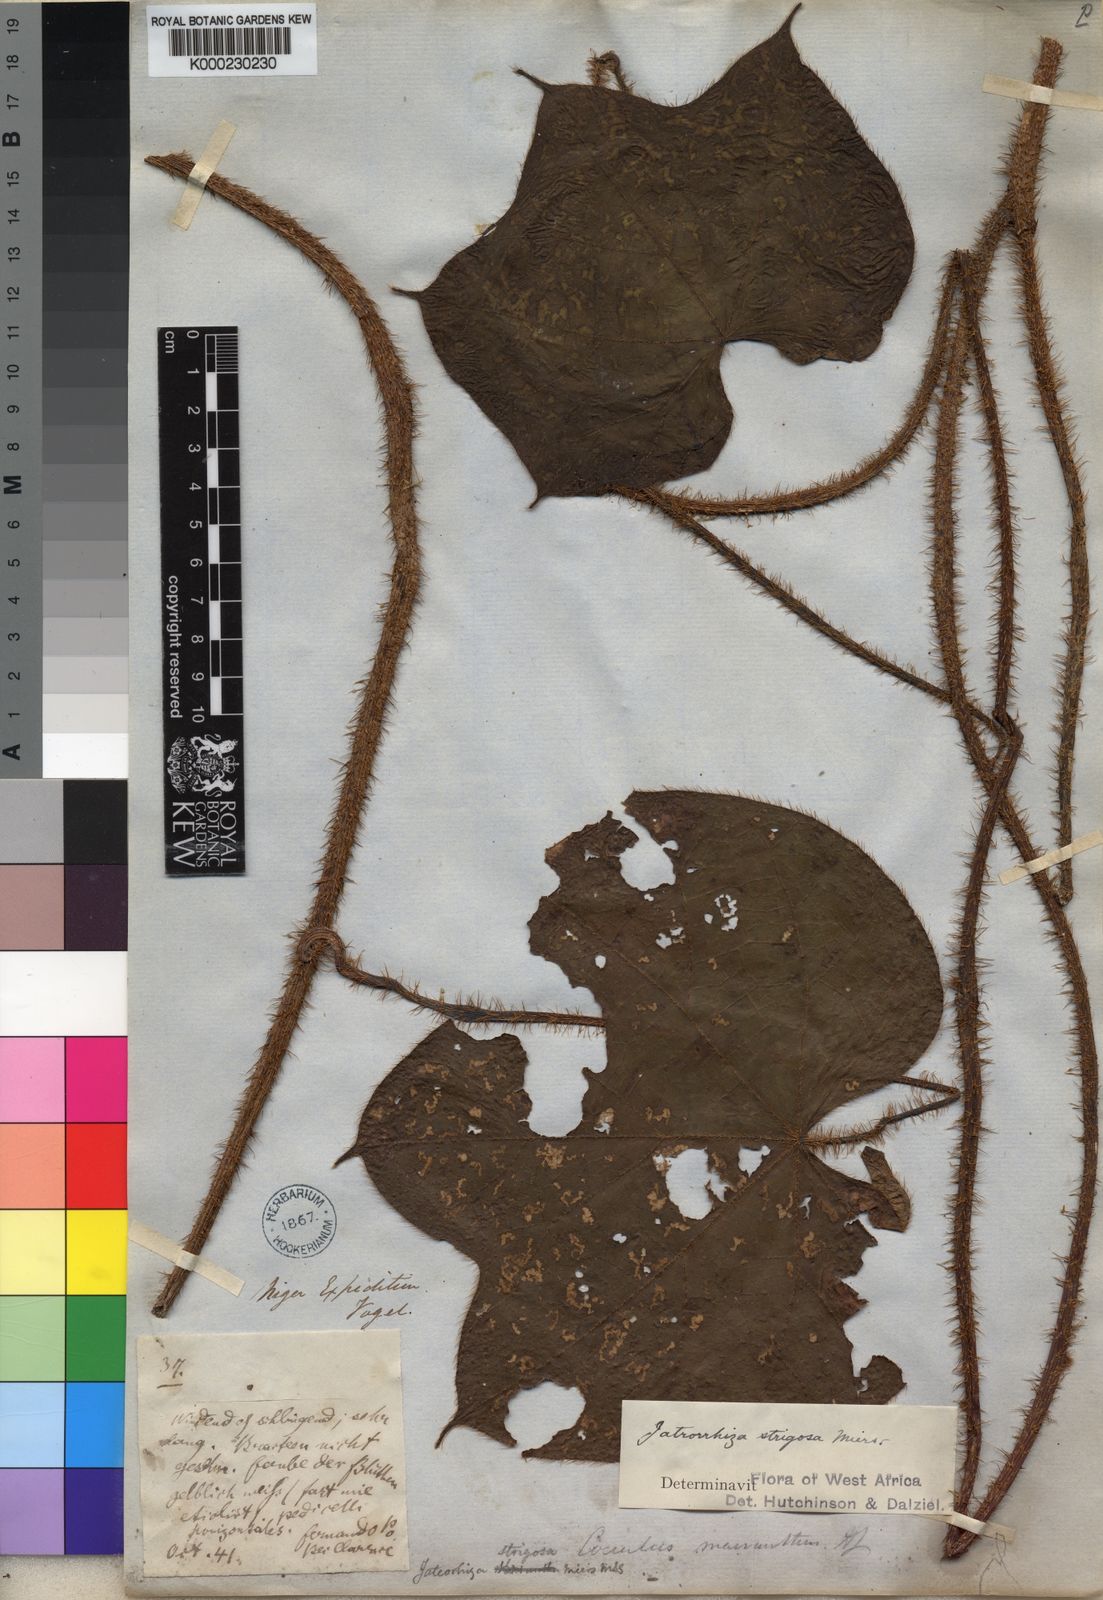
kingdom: Plantae
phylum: Tracheophyta
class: Magnoliopsida
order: Ranunculales
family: Menispermaceae
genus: Jateorhiza
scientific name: Jateorhiza
